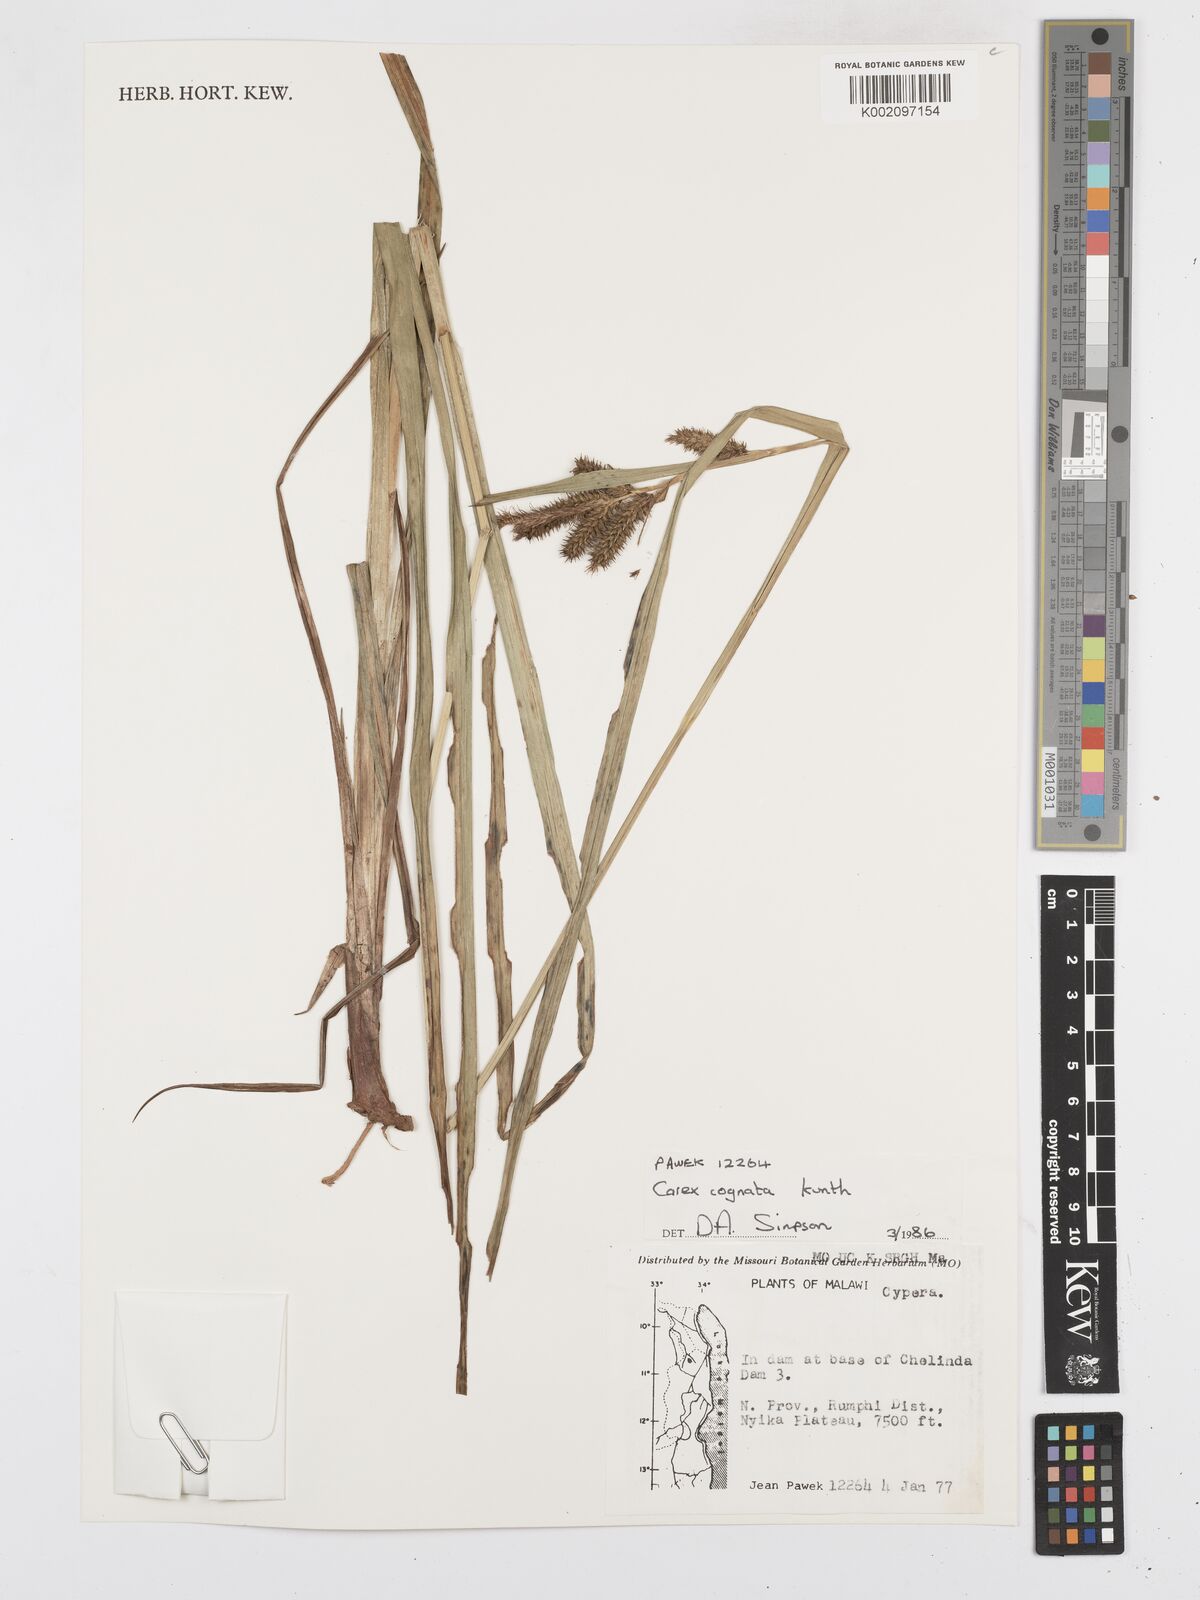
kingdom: Plantae
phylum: Tracheophyta
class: Liliopsida
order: Poales
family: Cyperaceae
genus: Carex
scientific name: Carex cognata
